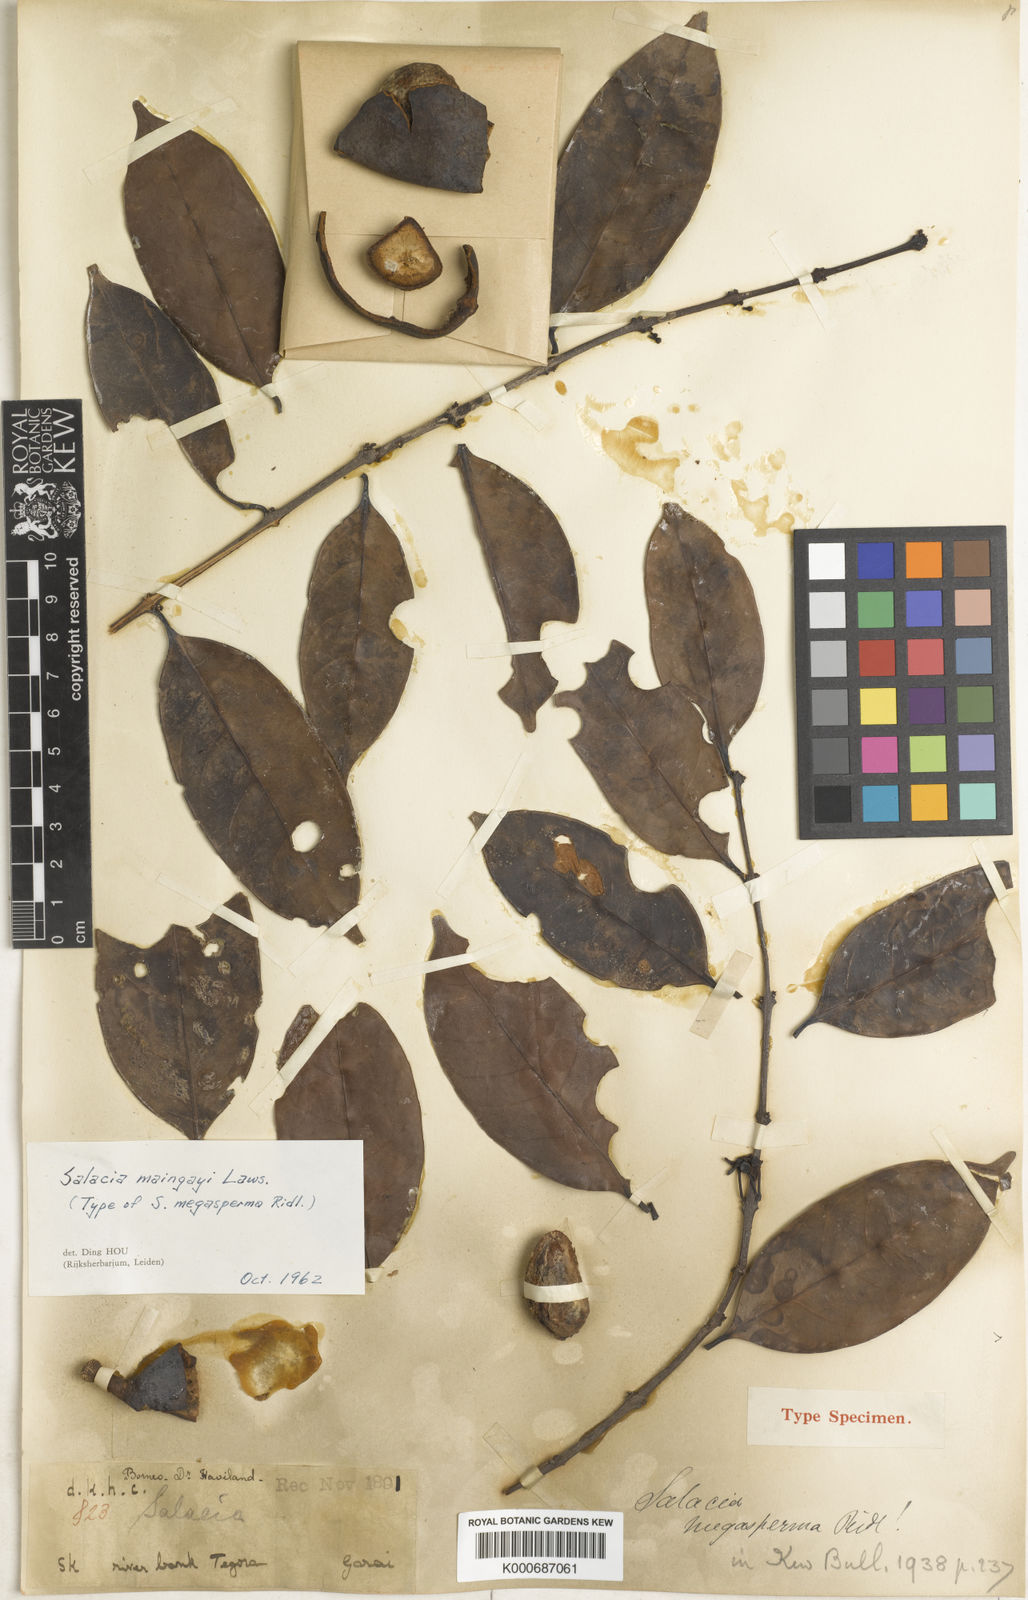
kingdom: Plantae
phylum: Tracheophyta
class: Magnoliopsida
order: Celastrales
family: Celastraceae
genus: Salacia
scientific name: Salacia maingayi
